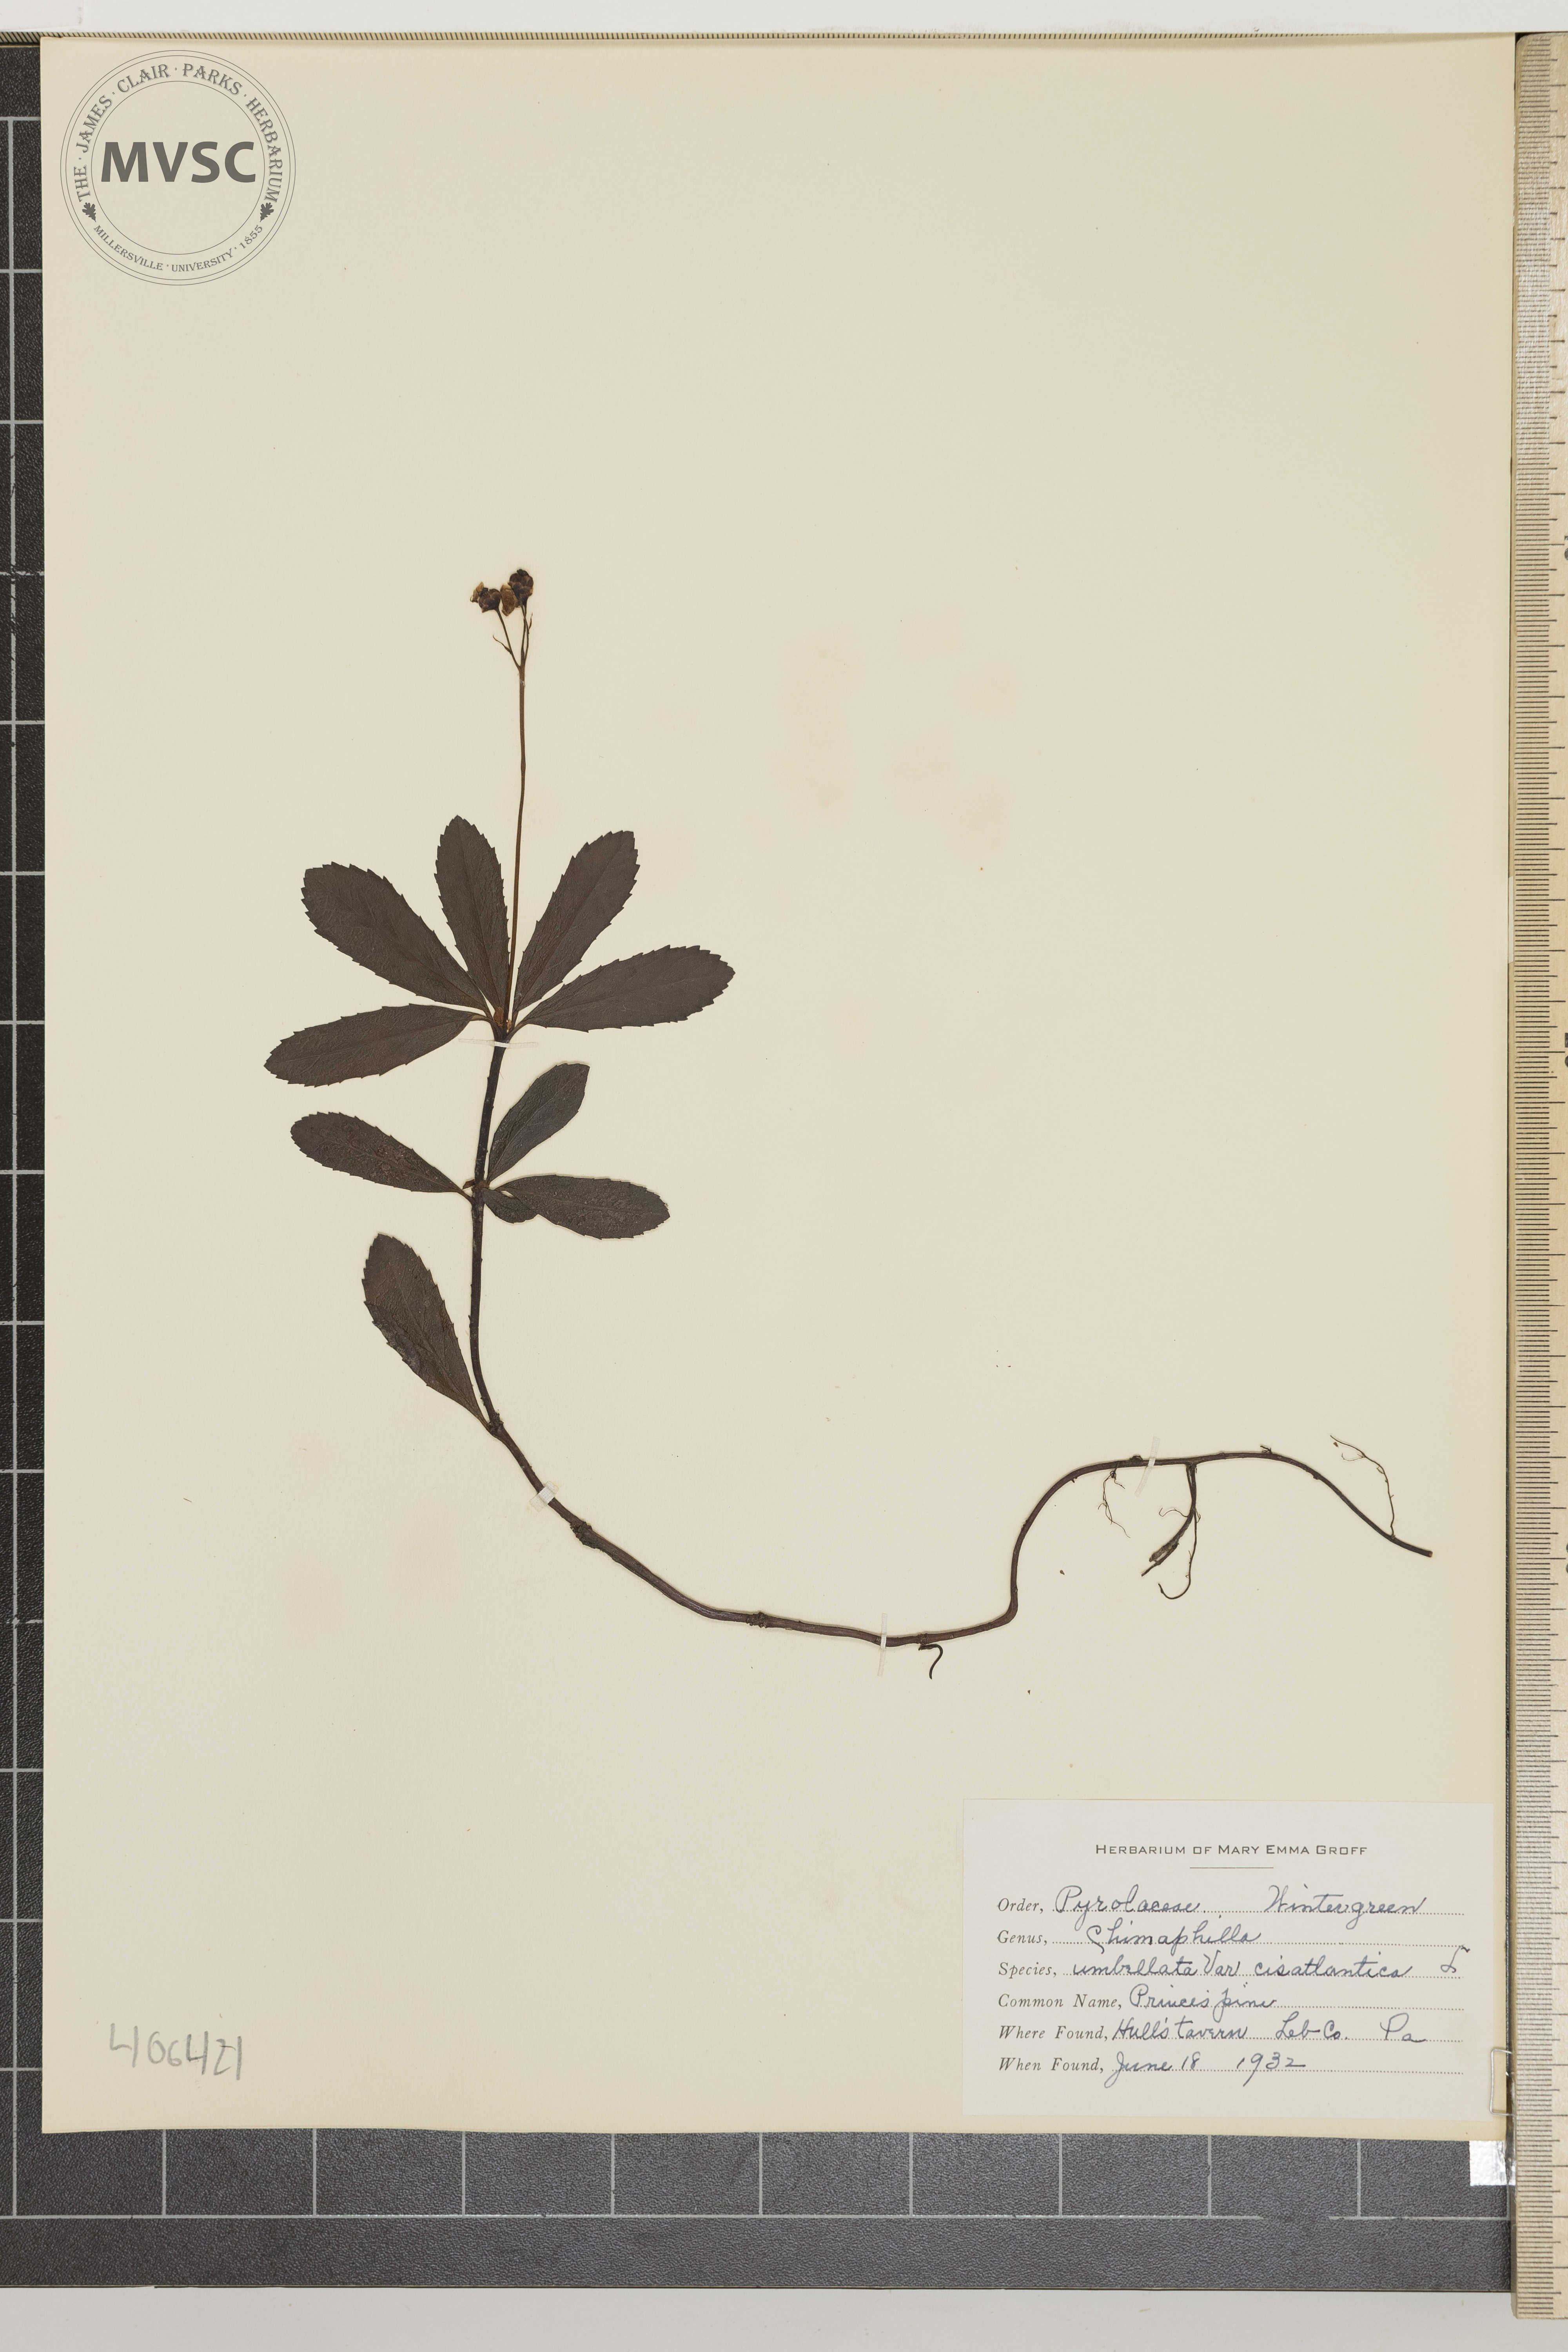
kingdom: Plantae
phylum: Tracheophyta
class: Magnoliopsida
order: Ericales
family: Ericaceae
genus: Chimaphila
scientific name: Chimaphila umbellata
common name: Prince's pine
